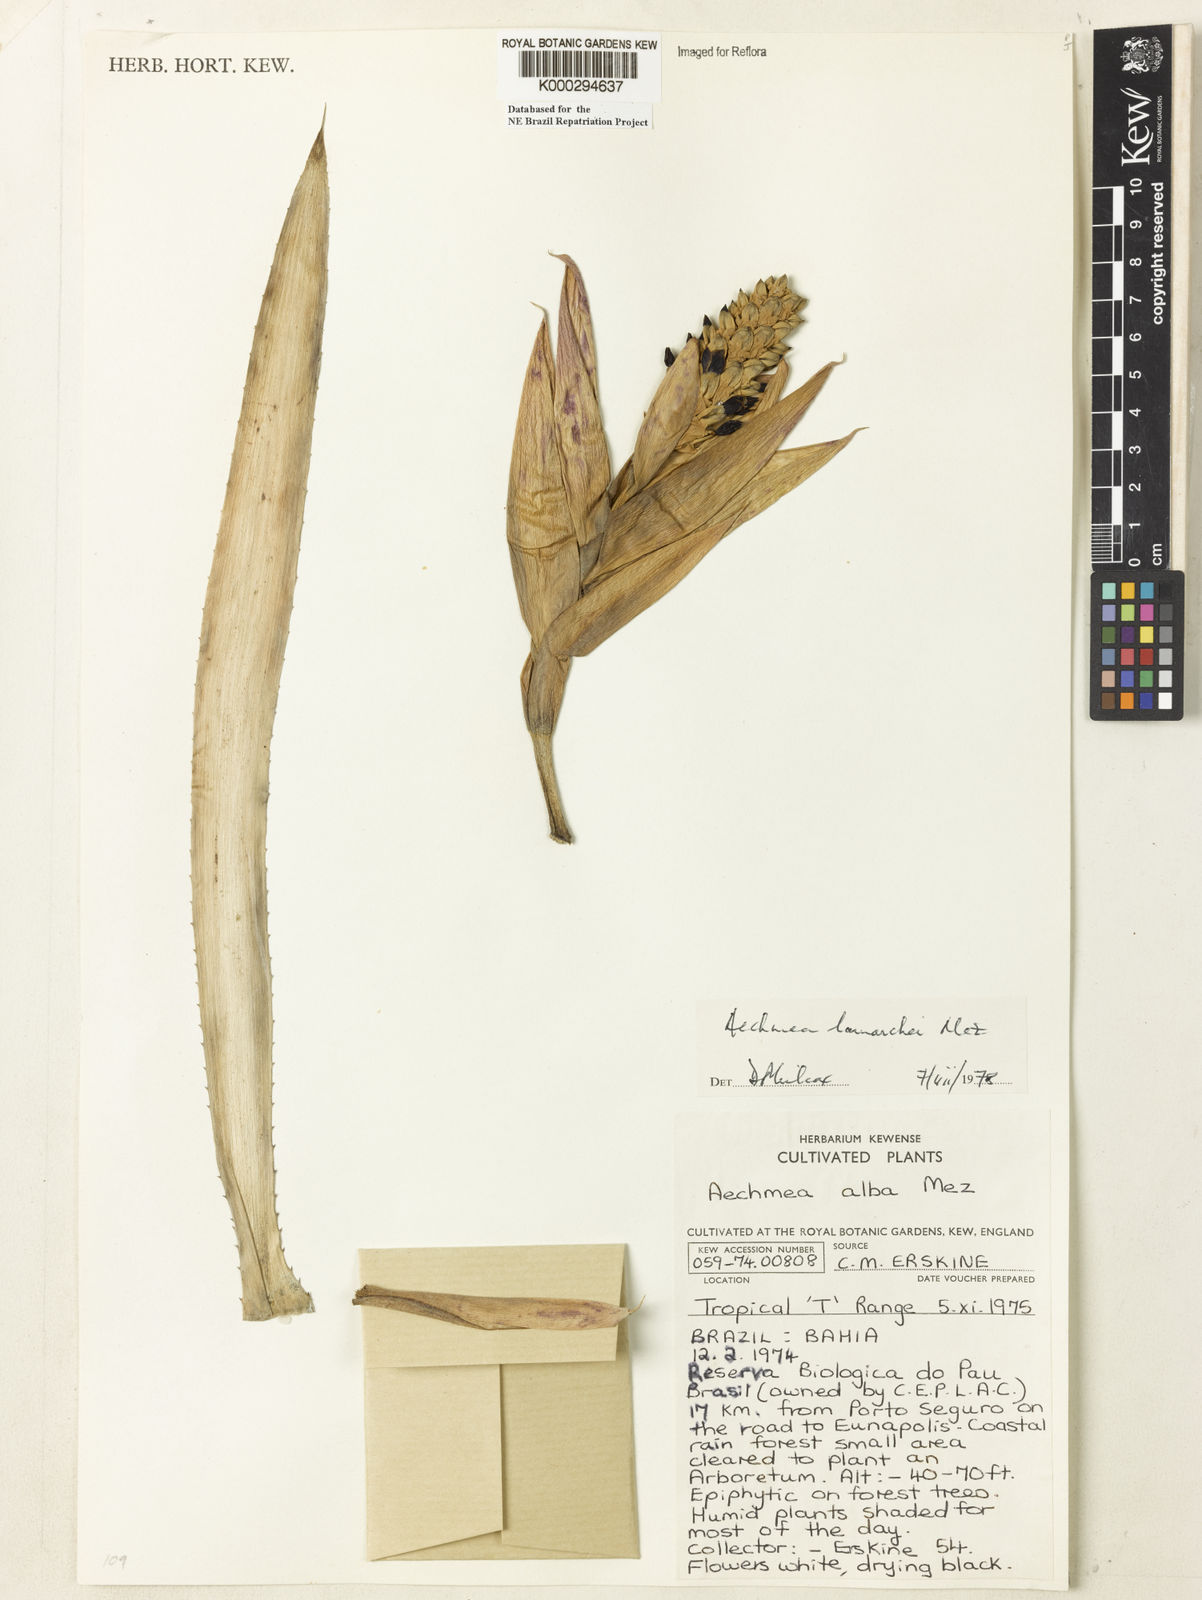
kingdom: Plantae
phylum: Tracheophyta
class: Liliopsida
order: Poales
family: Bromeliaceae
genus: Aechmea
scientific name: Aechmea lamarchei
